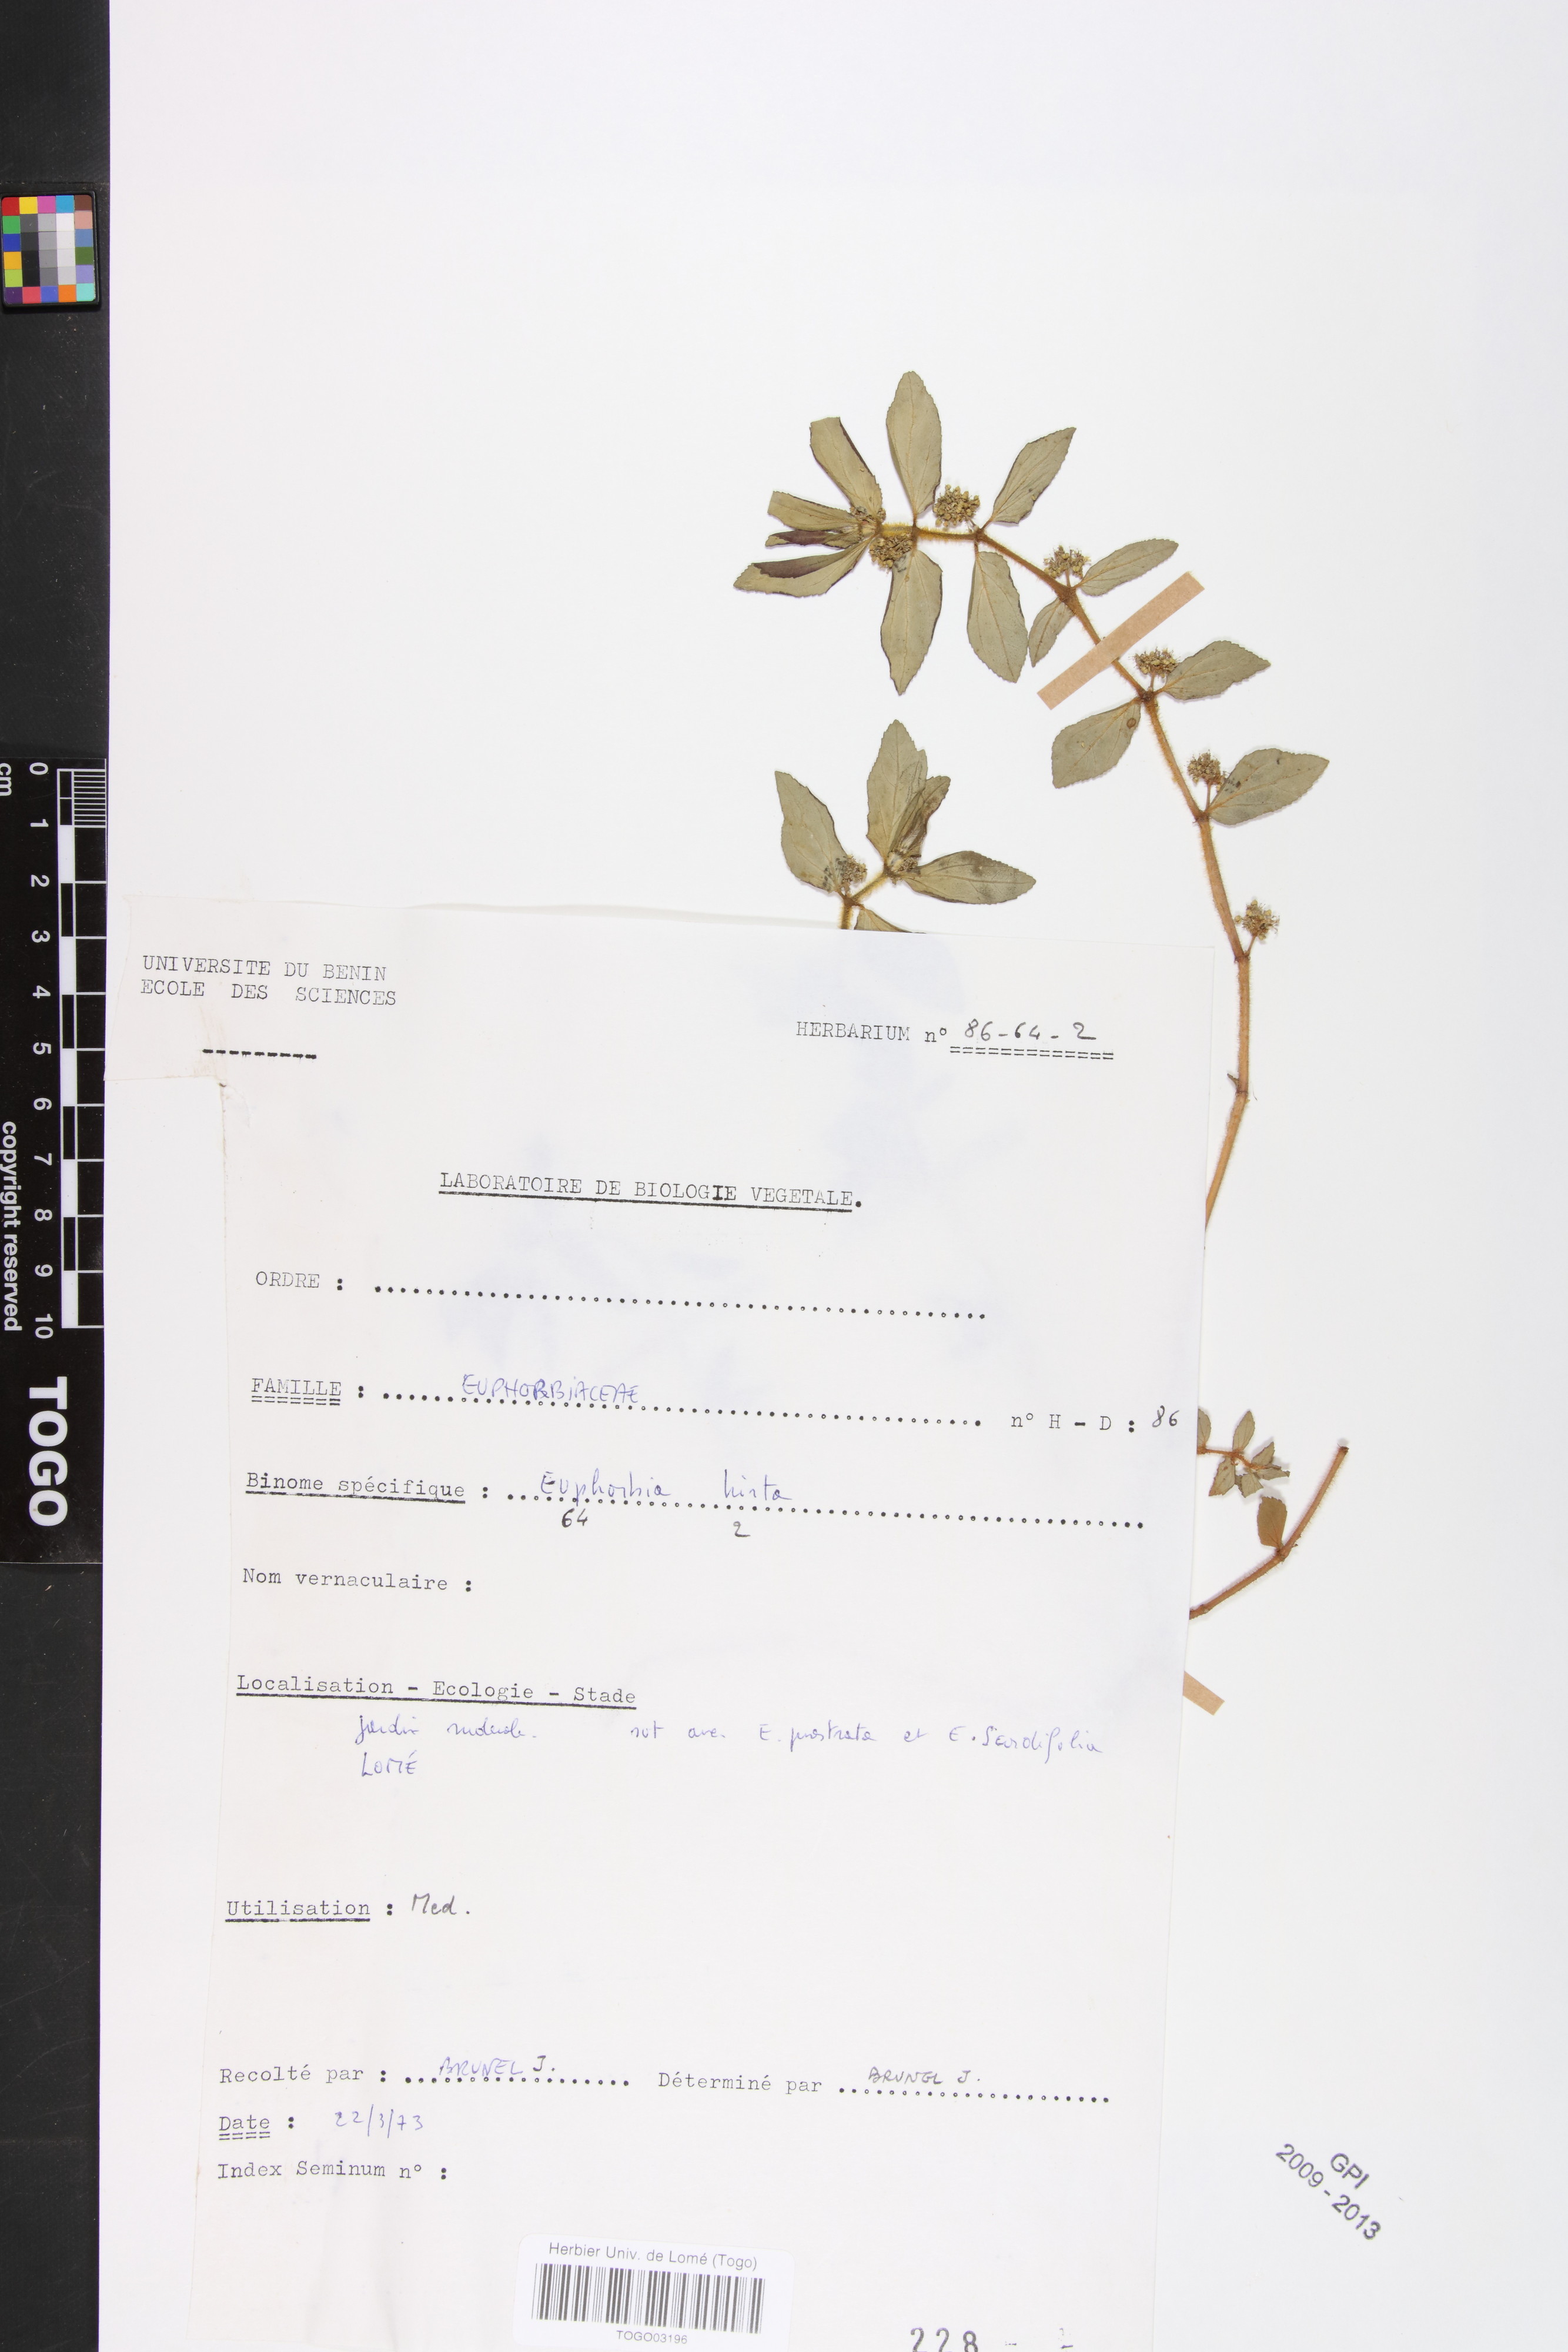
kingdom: Plantae
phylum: Tracheophyta
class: Magnoliopsida
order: Malpighiales
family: Euphorbiaceae
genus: Euphorbia
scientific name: Euphorbia hirta
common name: Pillpod sandmat
